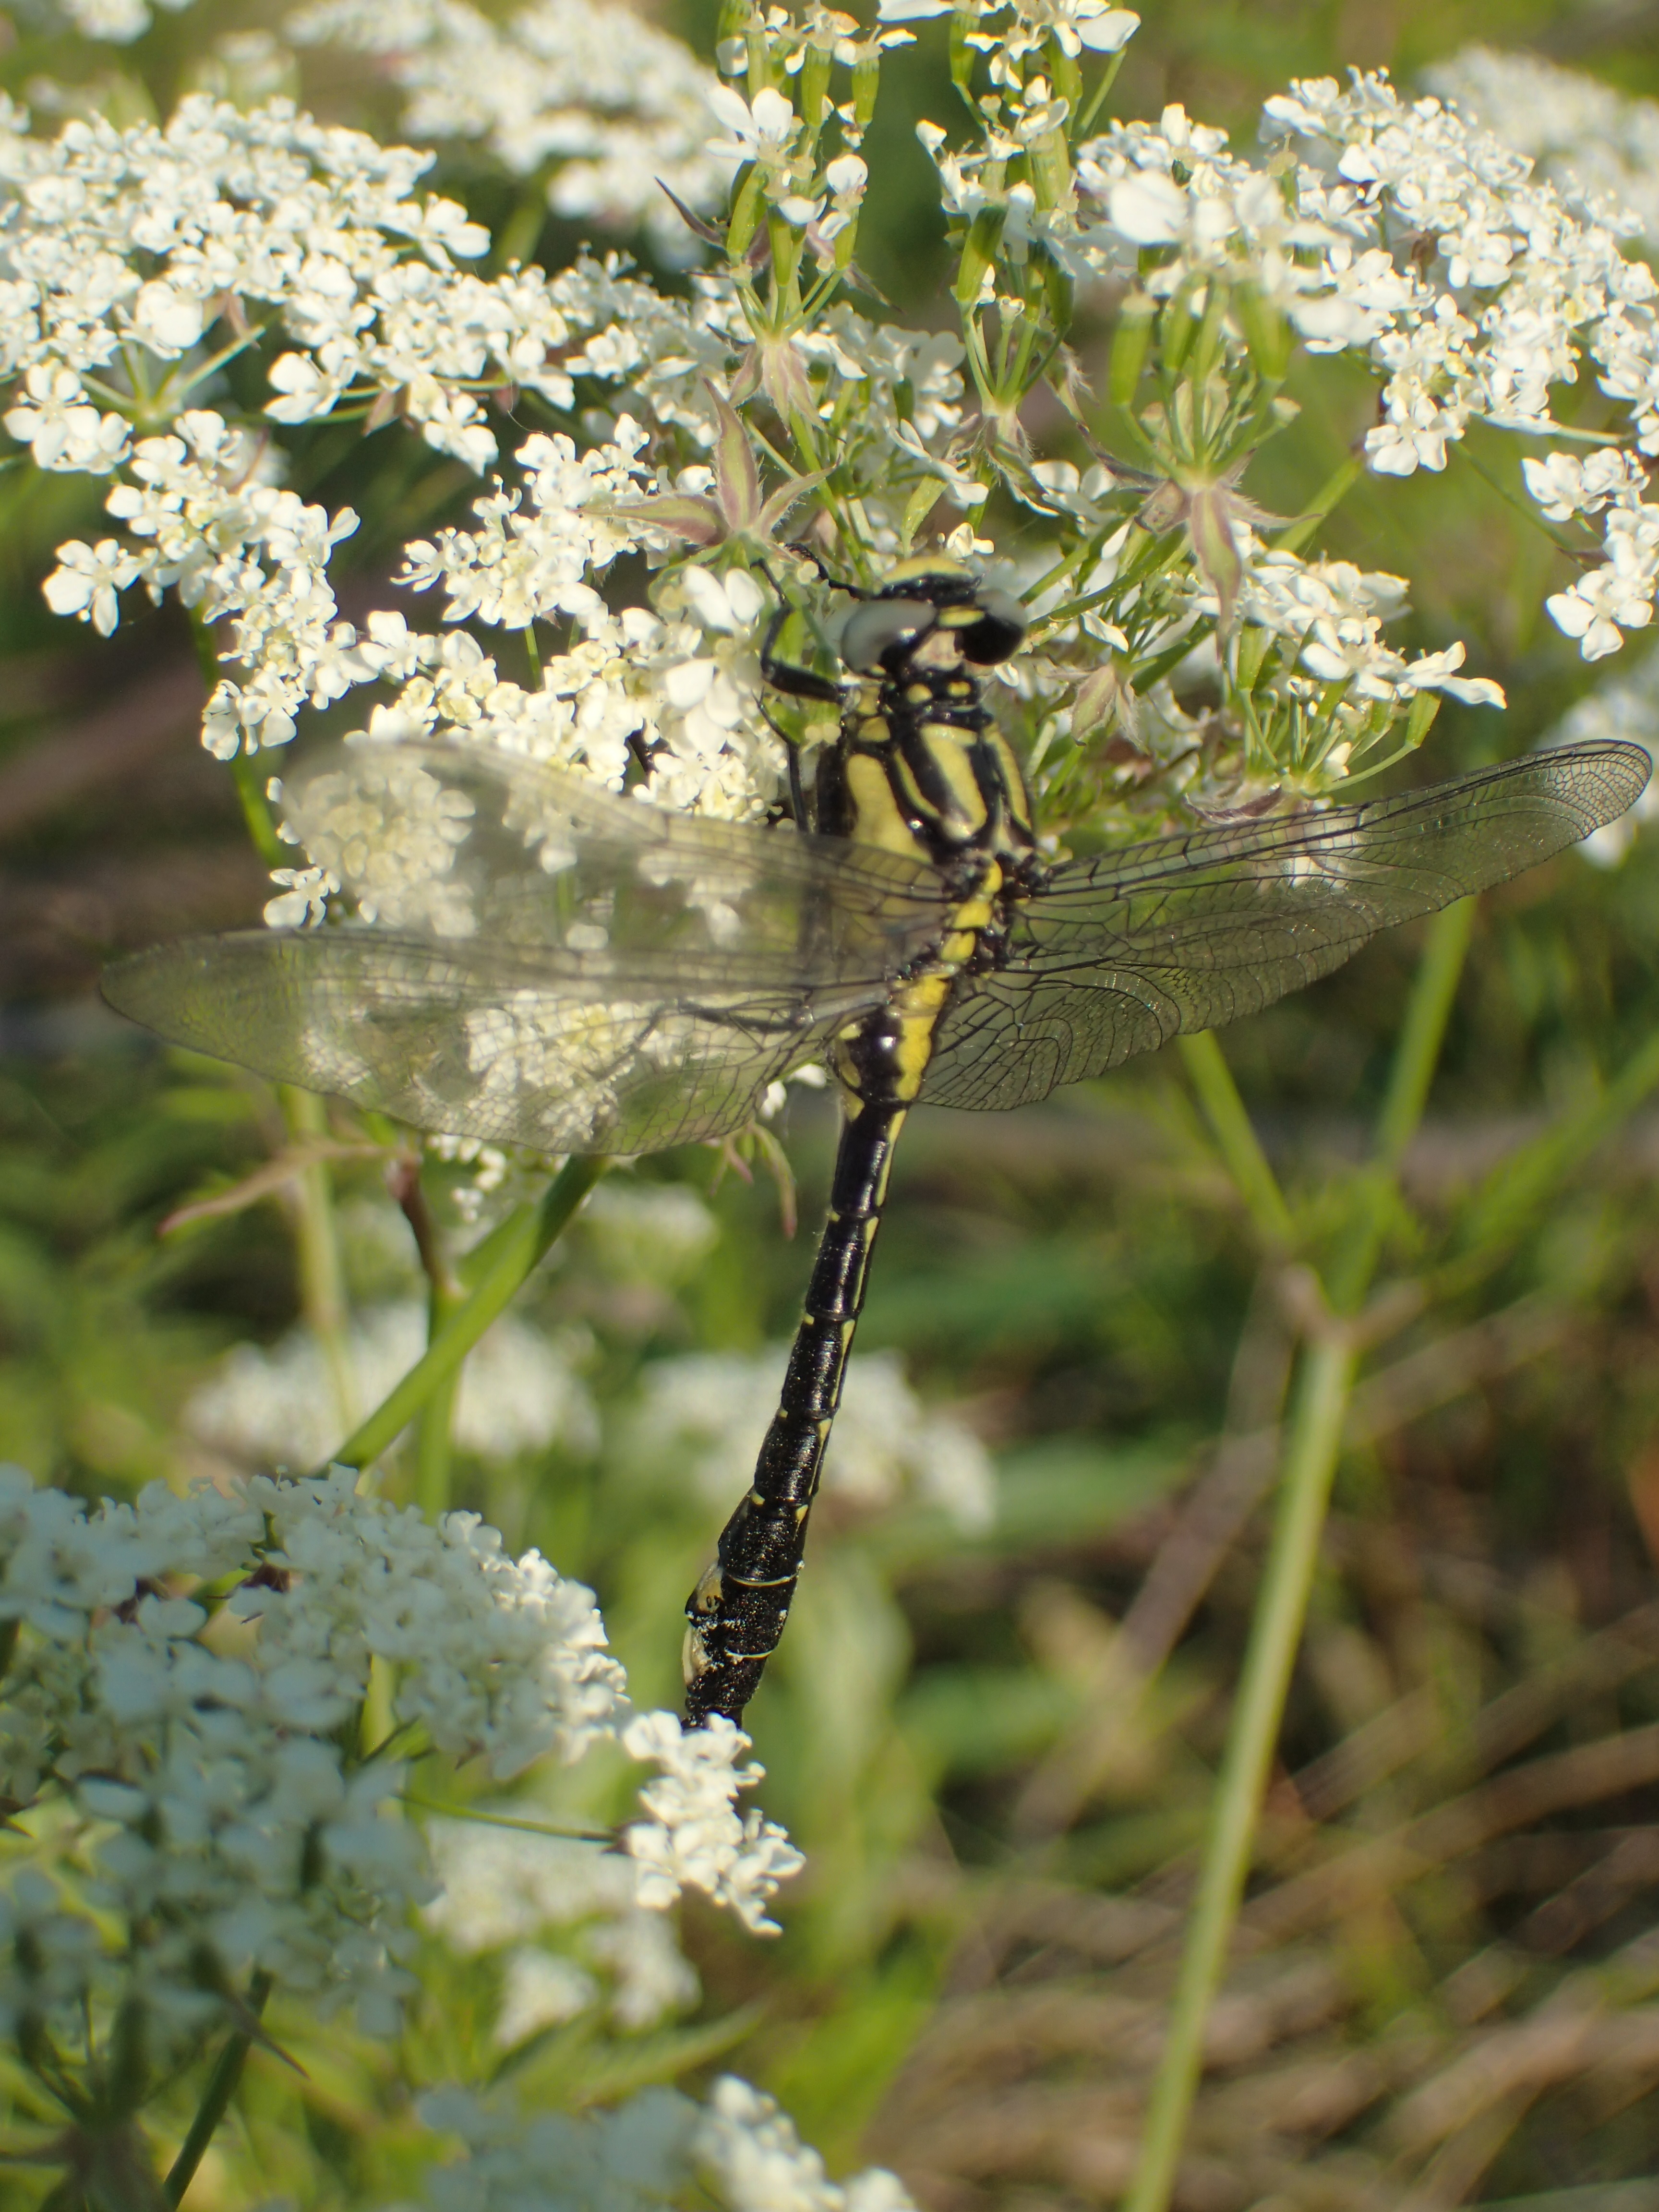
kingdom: Animalia
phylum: Arthropoda
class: Insecta
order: Odonata
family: Gomphidae
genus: Gomphus
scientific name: Gomphus vulgatissimus
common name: Club-tailed dragonfly
